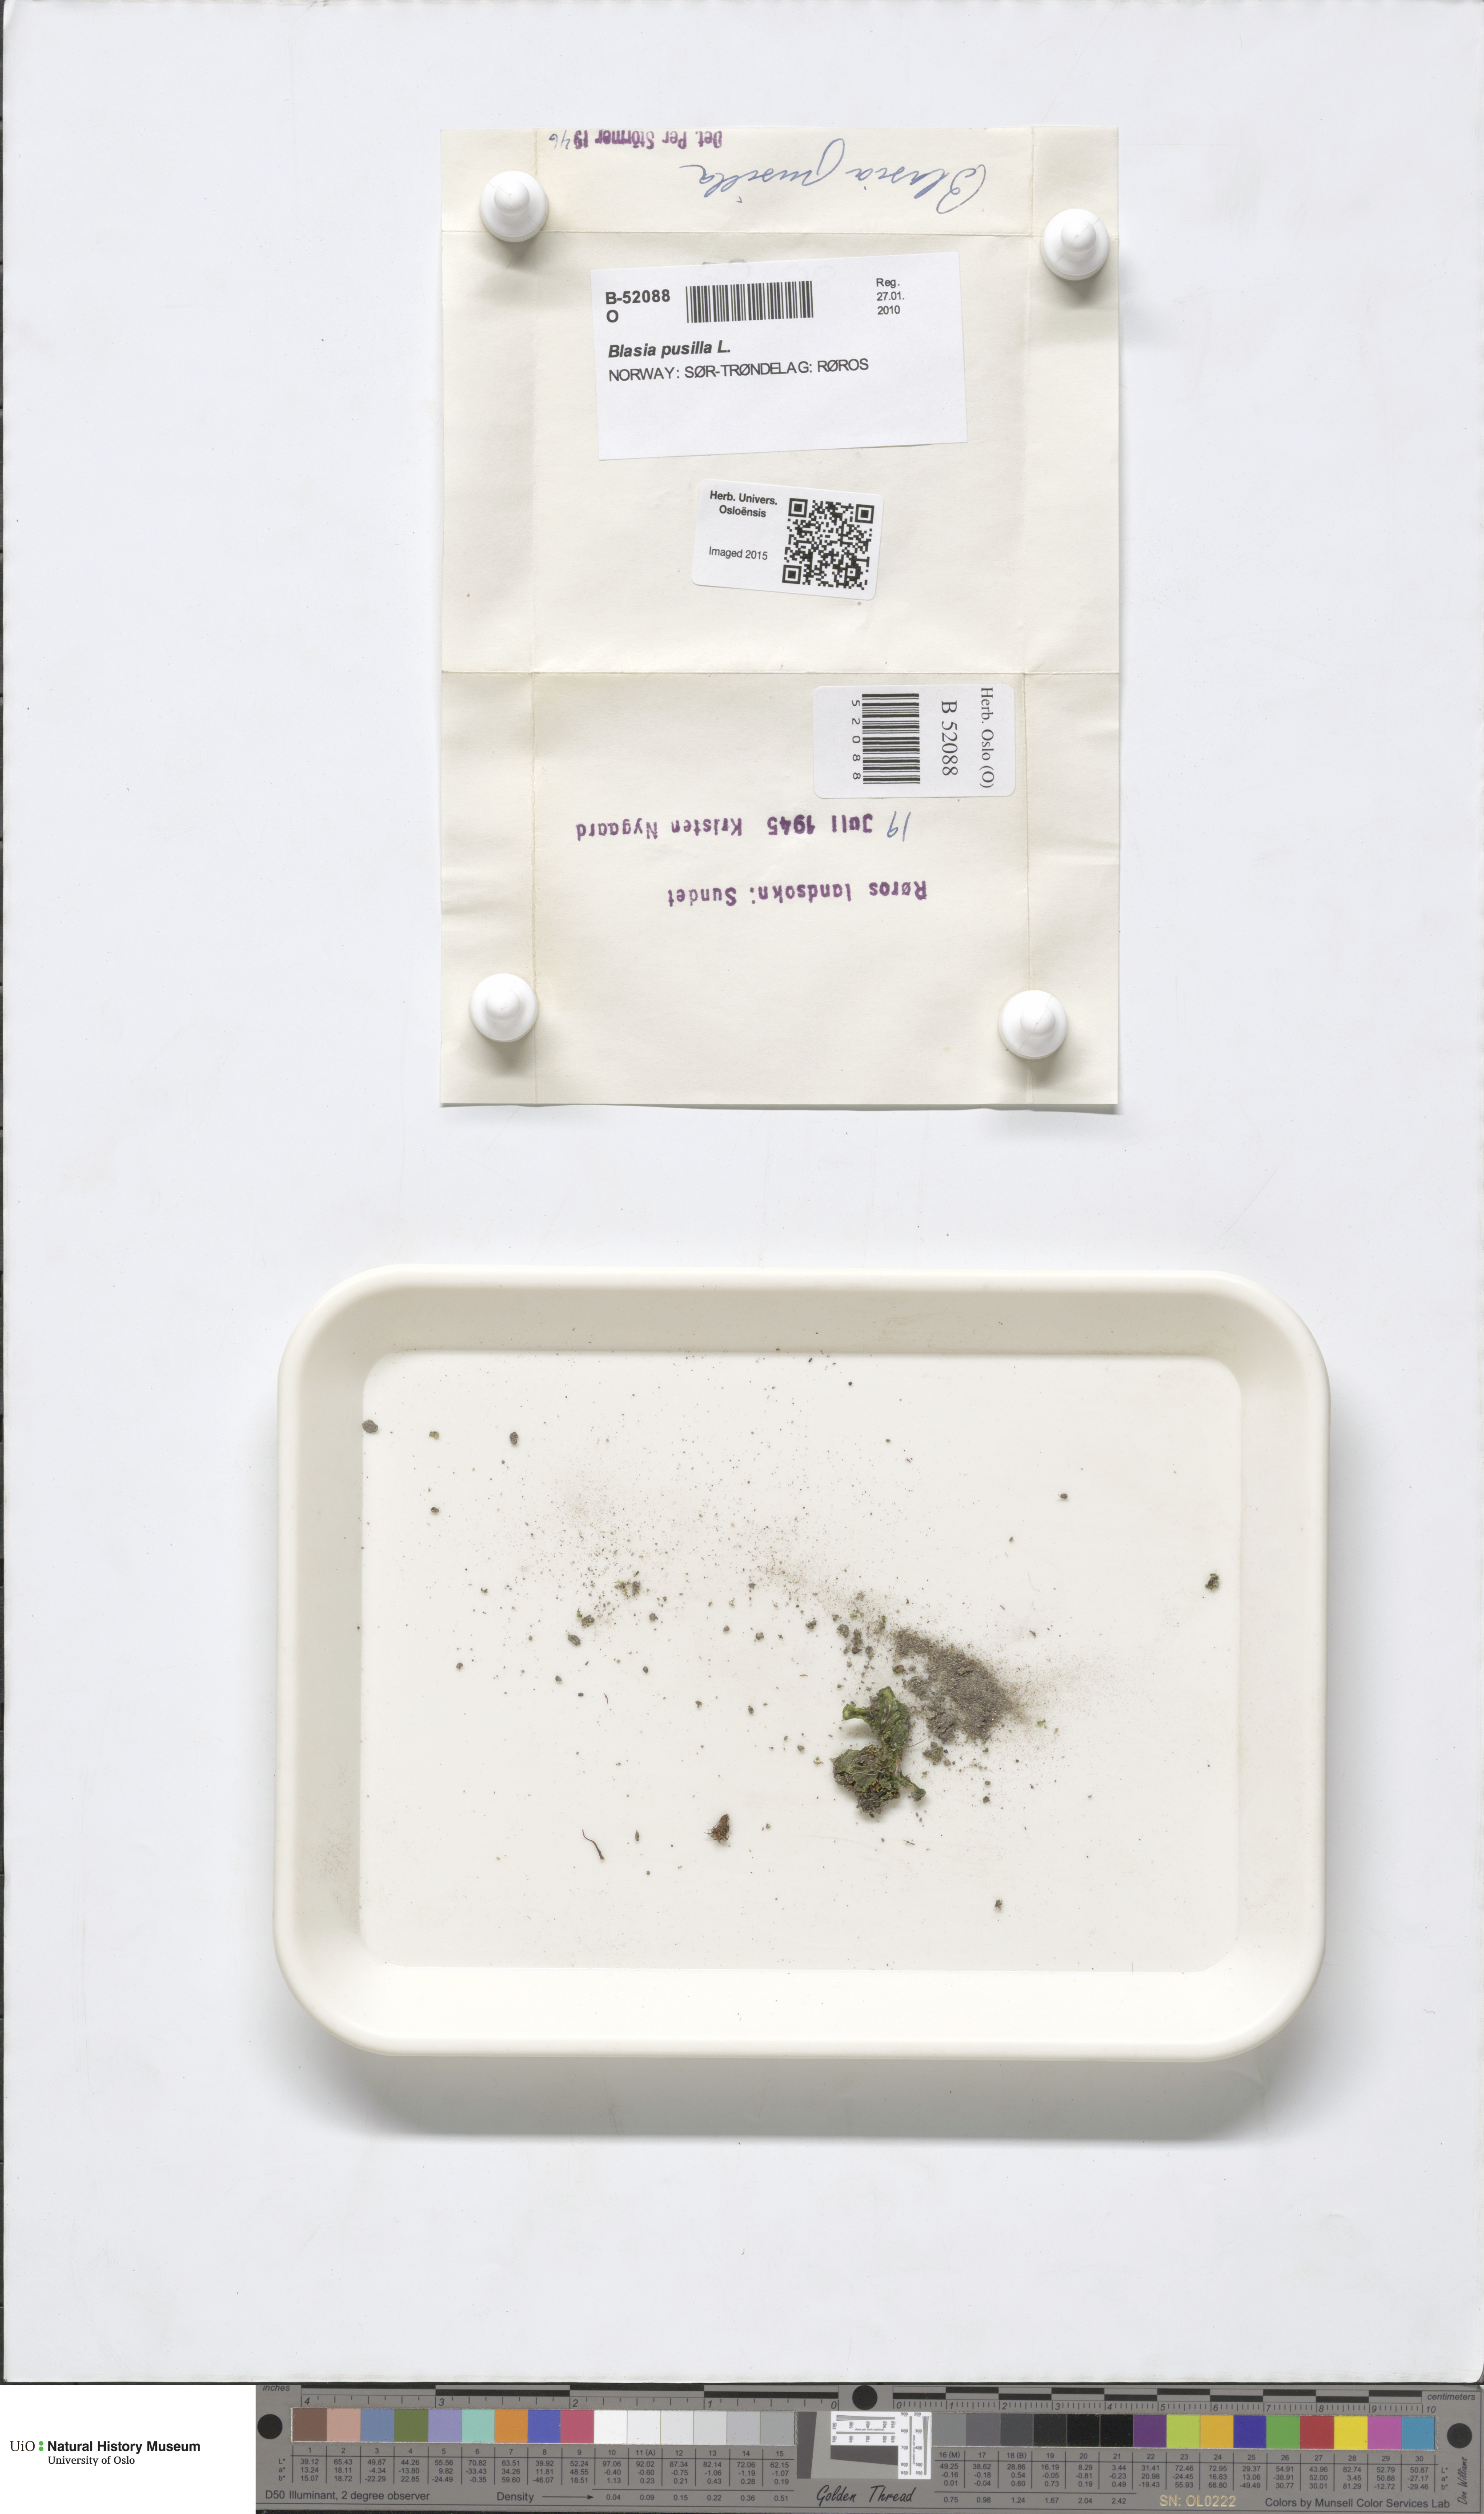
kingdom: Plantae
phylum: Marchantiophyta
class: Marchantiopsida
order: Blasiales
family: Blasiaceae
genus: Blasia
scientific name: Blasia pusilla
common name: Common kettlewort
